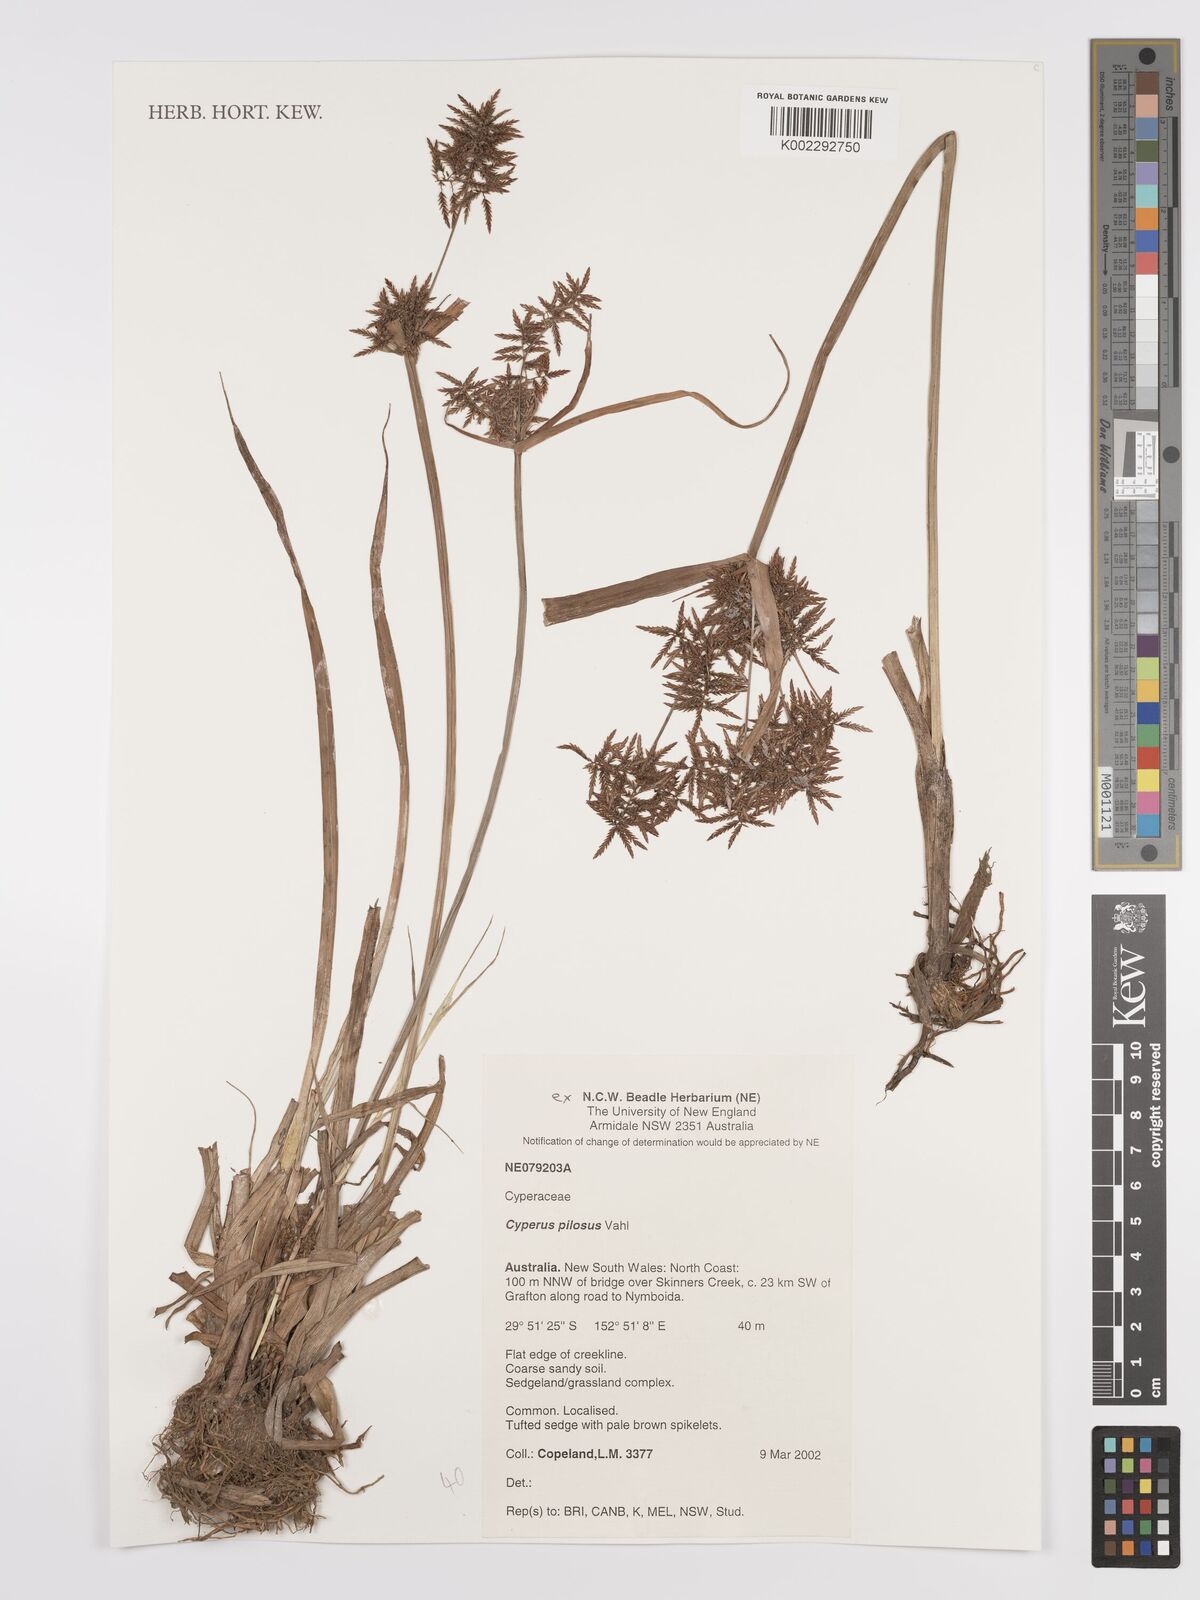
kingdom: Plantae
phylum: Tracheophyta
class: Liliopsida
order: Poales
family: Cyperaceae
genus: Cyperus
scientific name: Cyperus pilosus
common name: Fuzzy flatsedge
